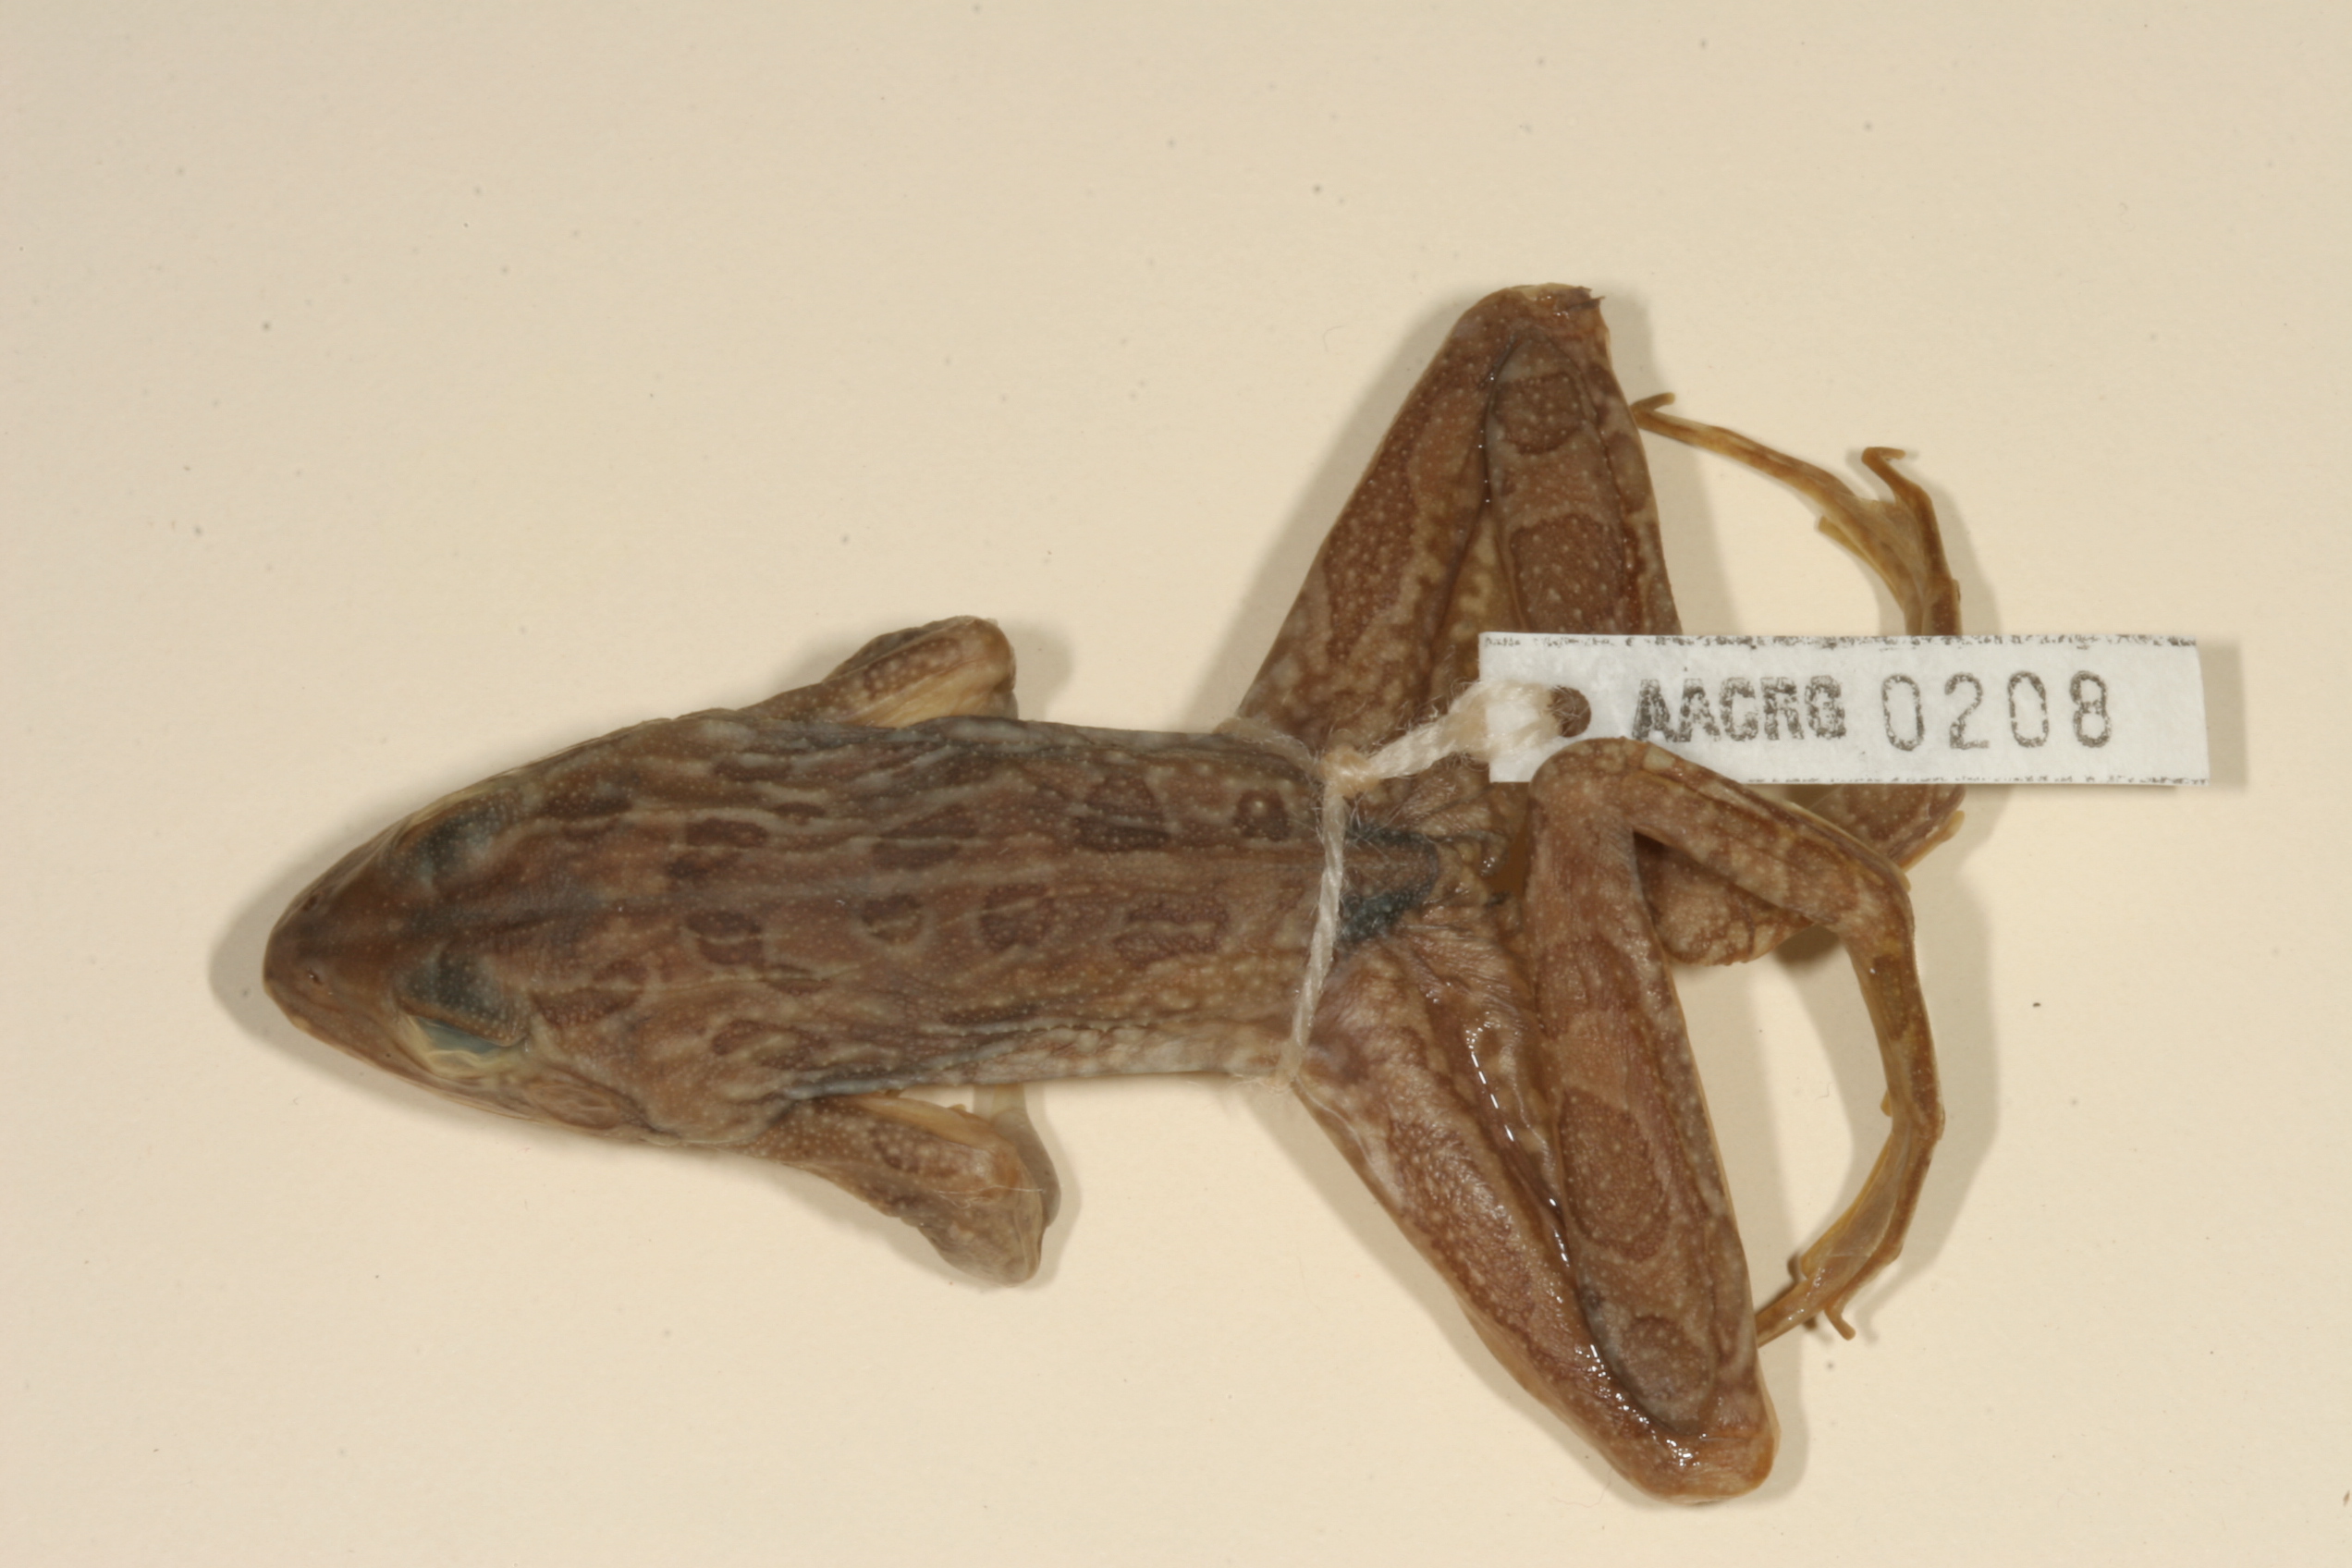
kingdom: Animalia
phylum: Chordata
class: Amphibia
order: Anura
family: Pyxicephalidae
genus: Amietia
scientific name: Amietia angolensis
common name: Dusky-throated frog
